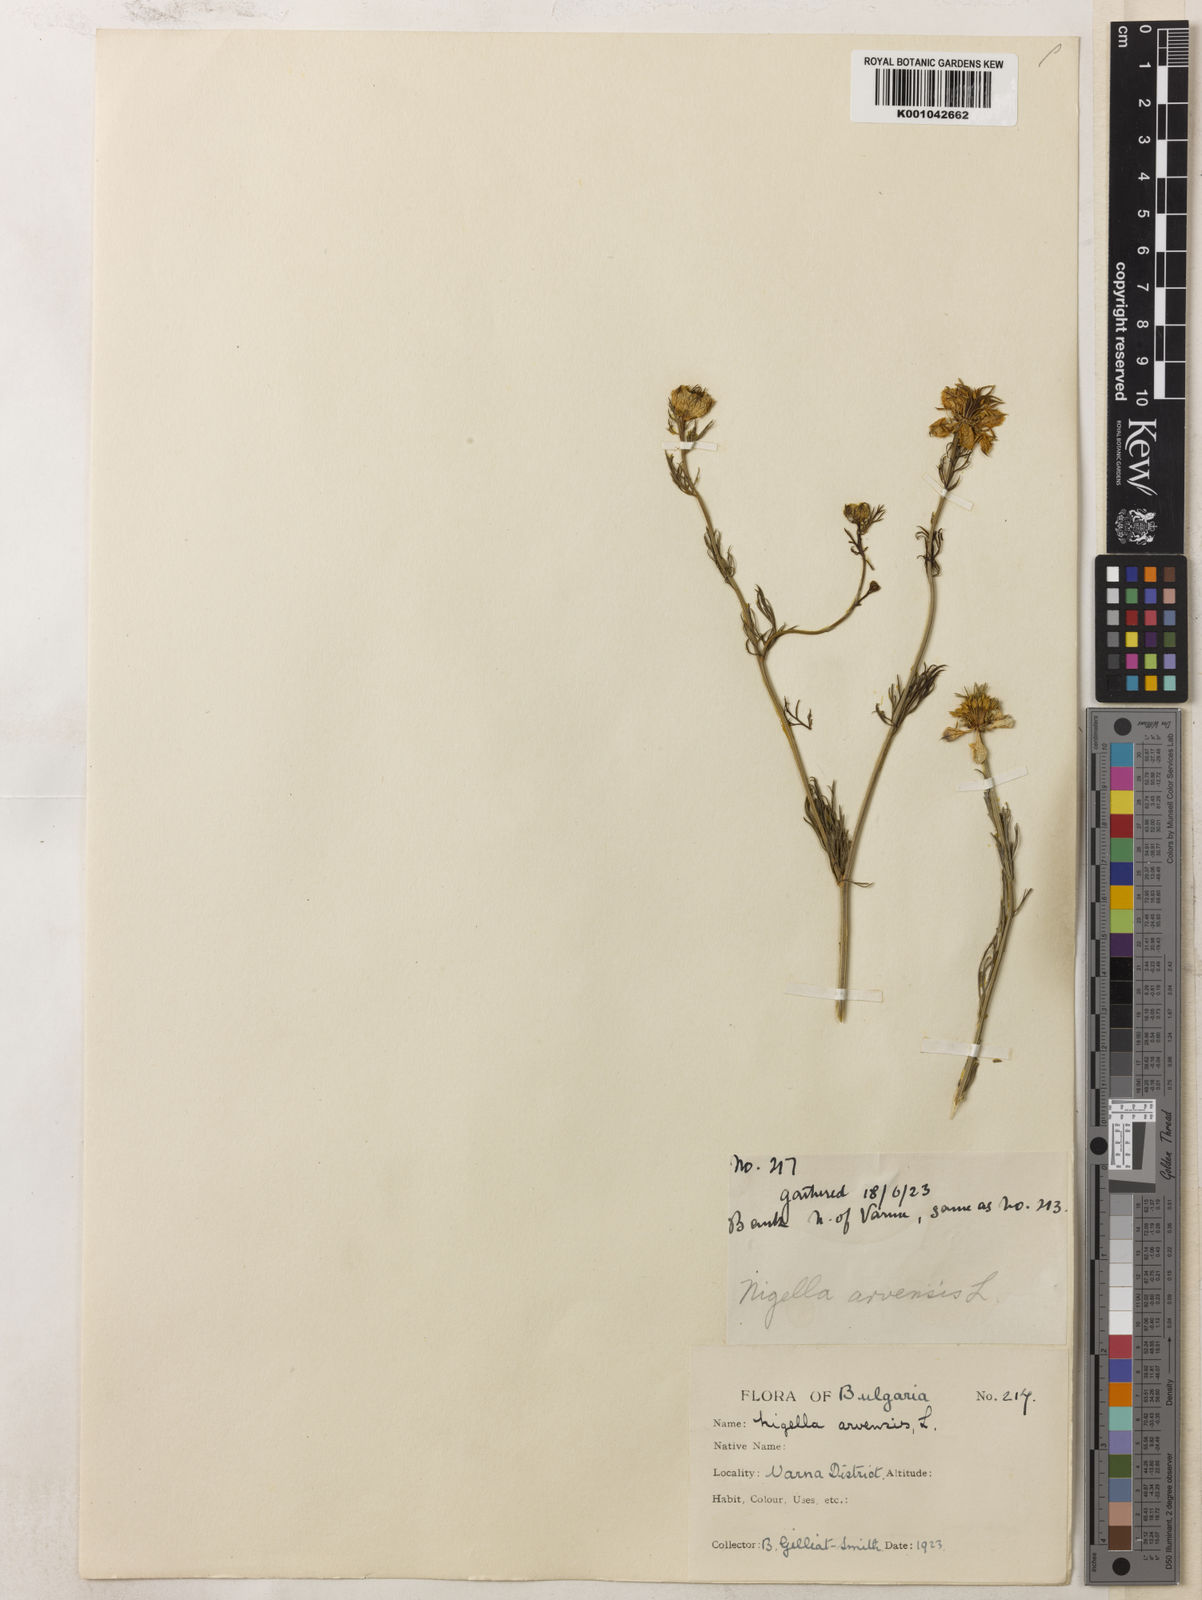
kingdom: Plantae
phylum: Tracheophyta
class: Magnoliopsida
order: Ranunculales
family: Ranunculaceae
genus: Nigella
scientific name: Nigella arvensis
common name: Wild fennel-flower
